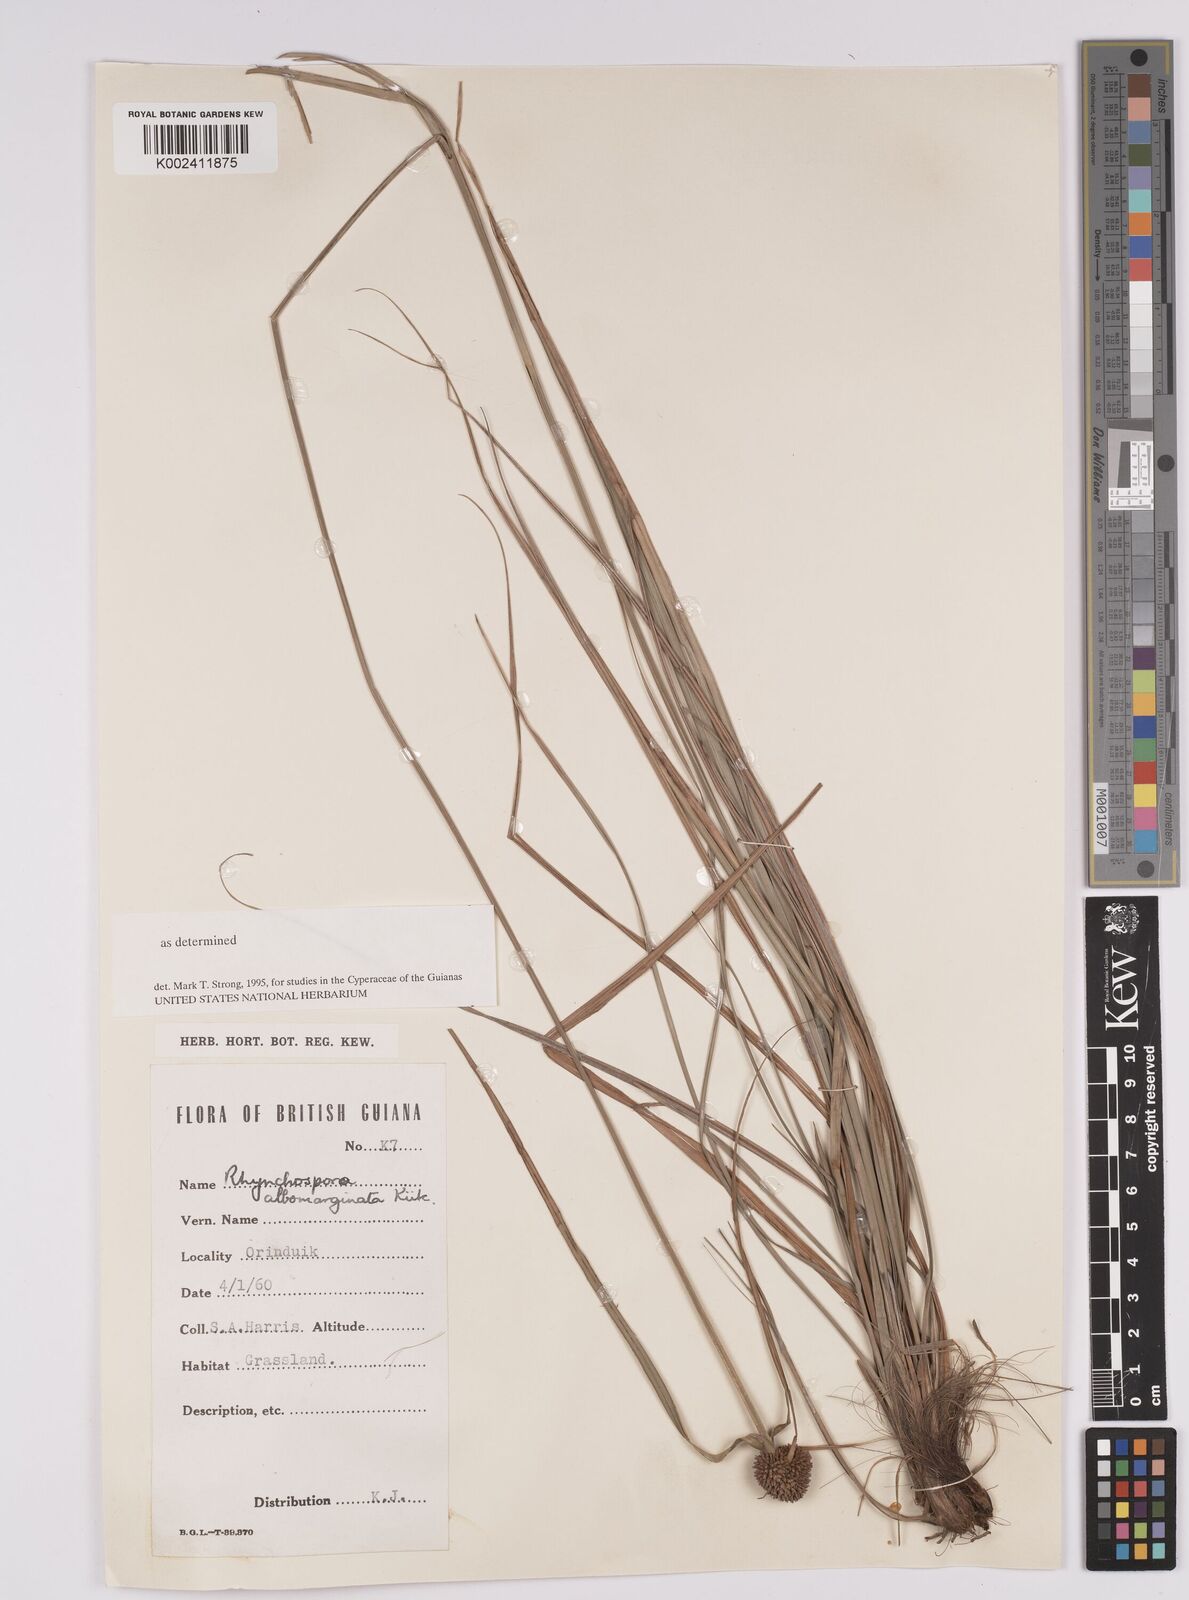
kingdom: Plantae
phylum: Tracheophyta
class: Liliopsida
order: Poales
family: Cyperaceae
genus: Rhynchospora
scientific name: Rhynchospora albomarginata
